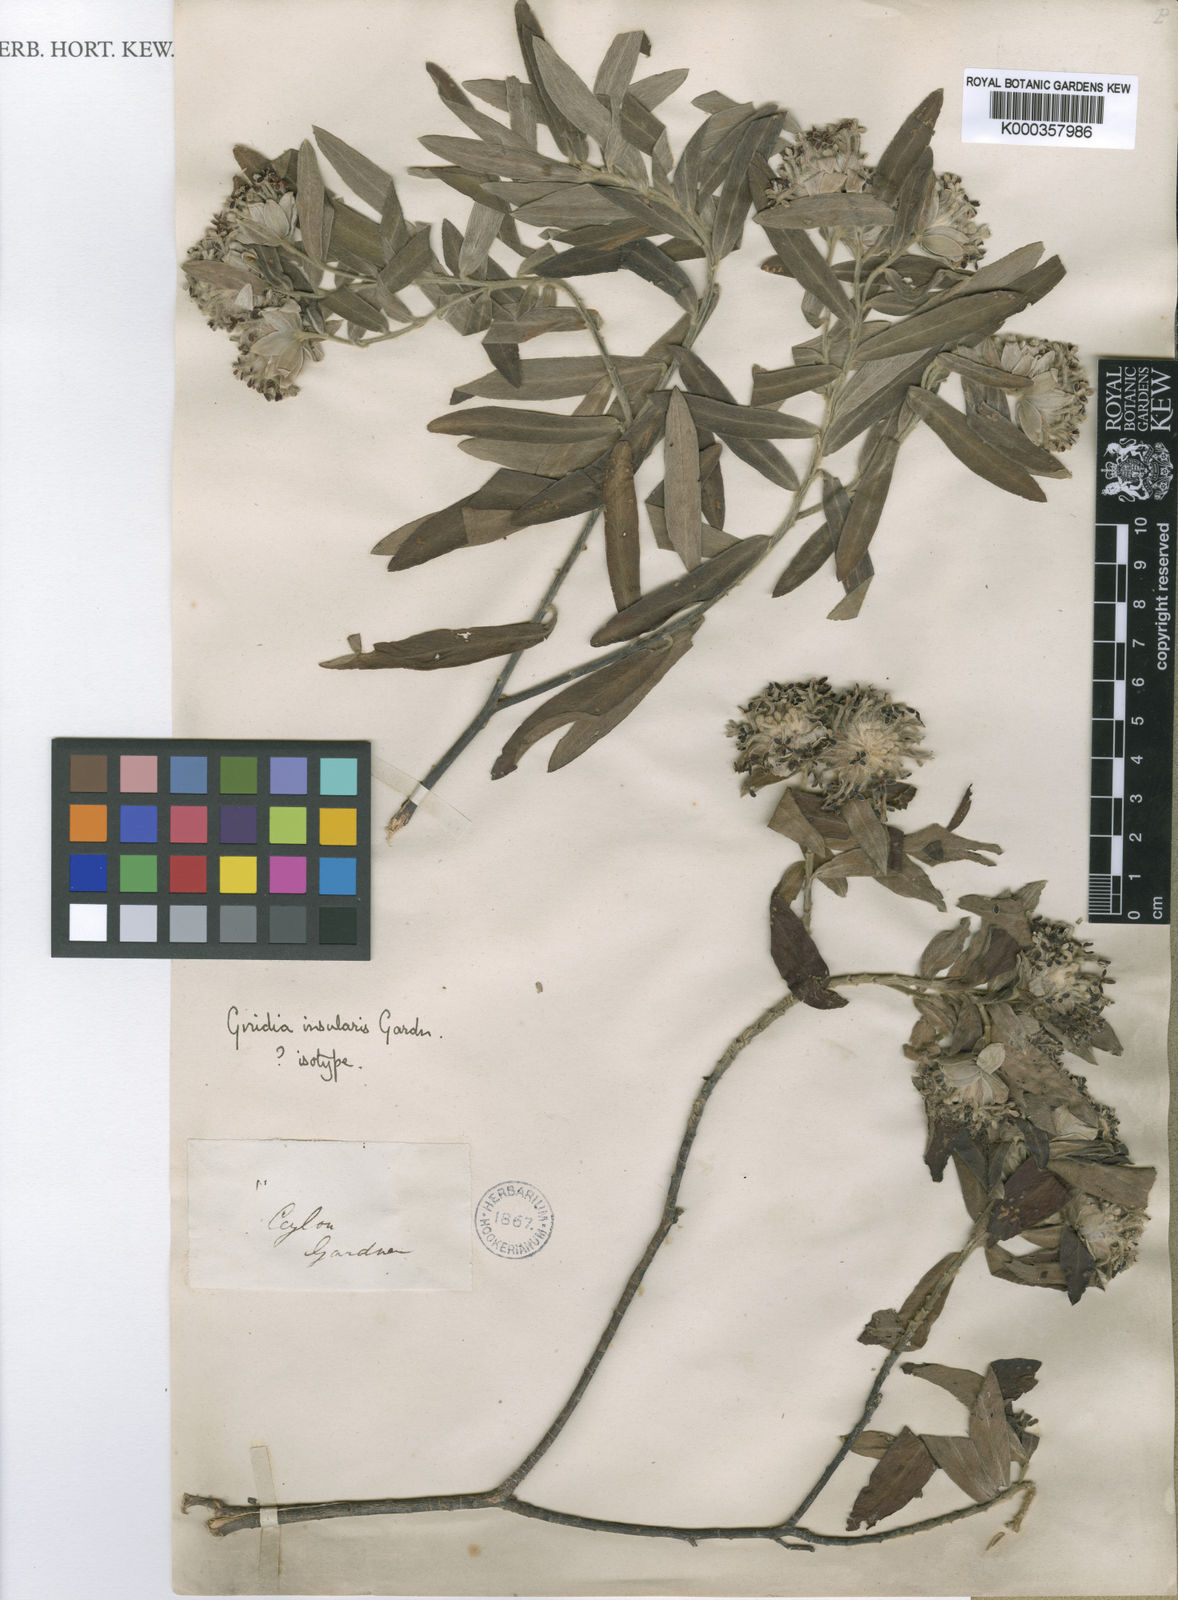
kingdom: Plantae
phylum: Tracheophyta
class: Magnoliopsida
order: Malvales
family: Thymelaeaceae
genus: Gnidia
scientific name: Gnidia glauca
